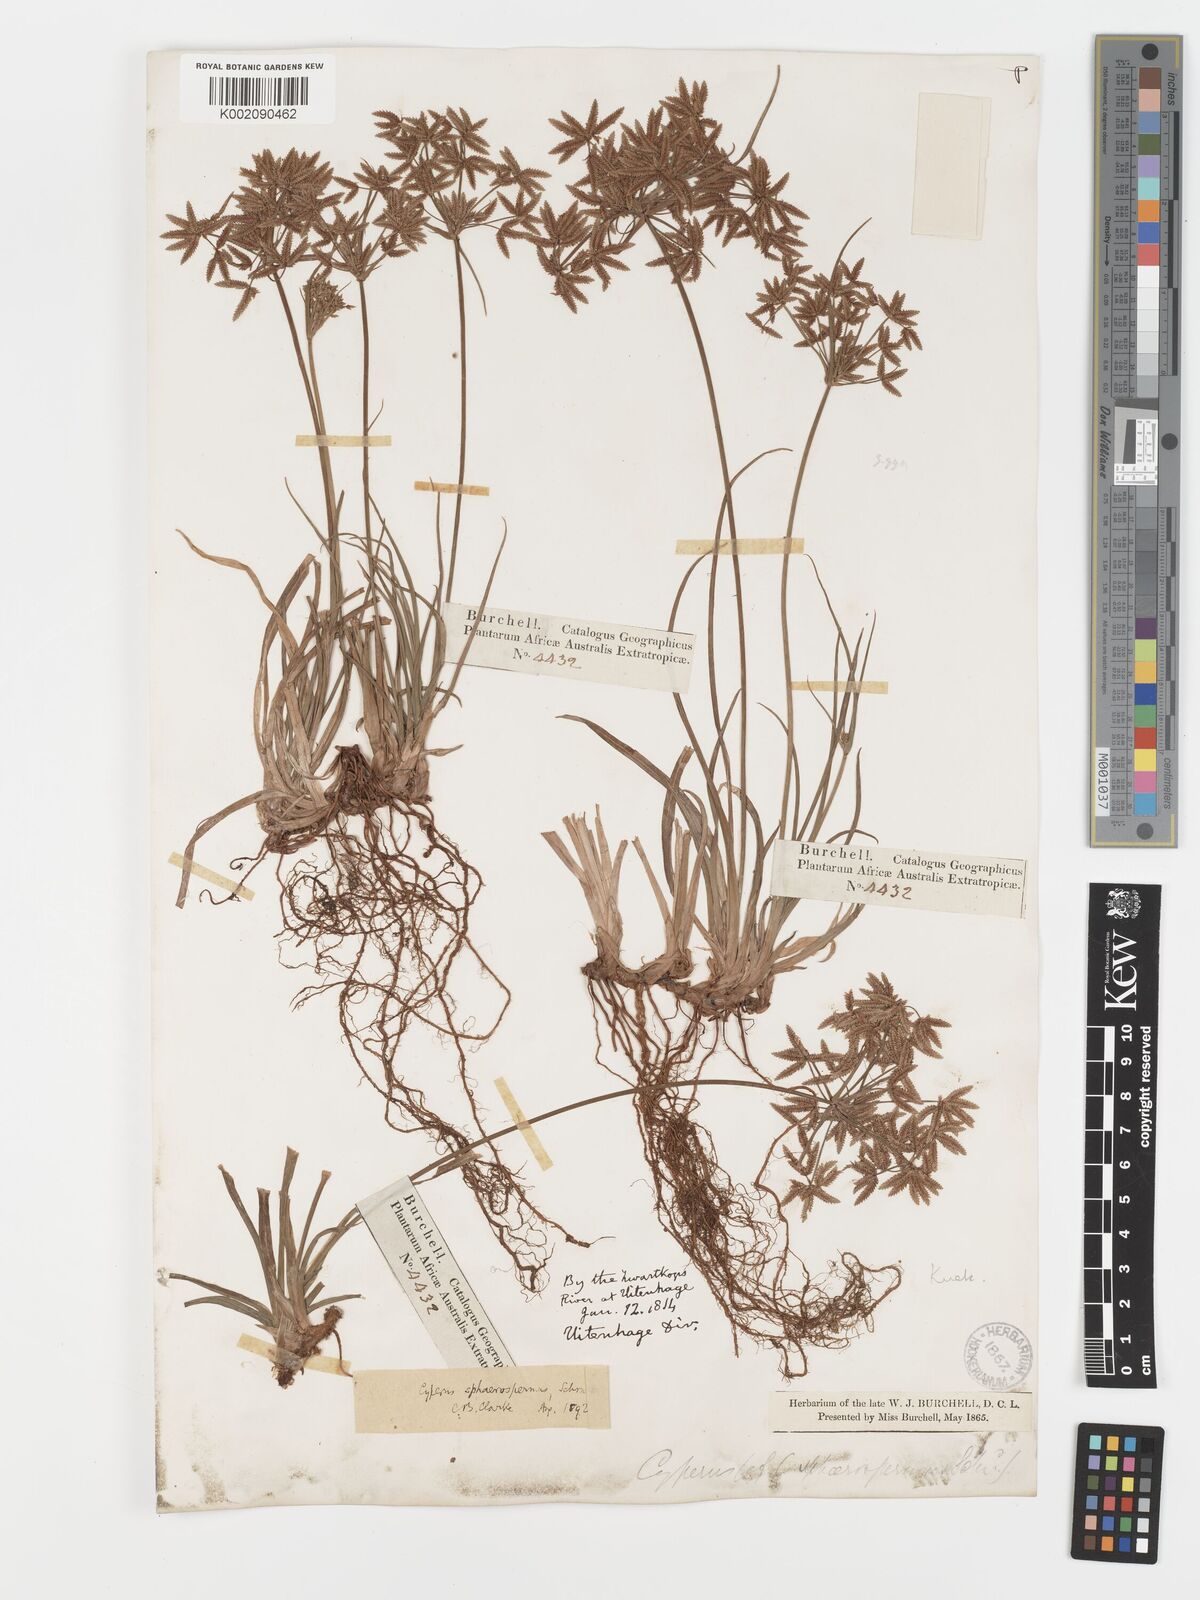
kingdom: Plantae
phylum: Tracheophyta
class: Liliopsida
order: Poales
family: Cyperaceae
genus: Cyperus
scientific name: Cyperus sphaerospermus
